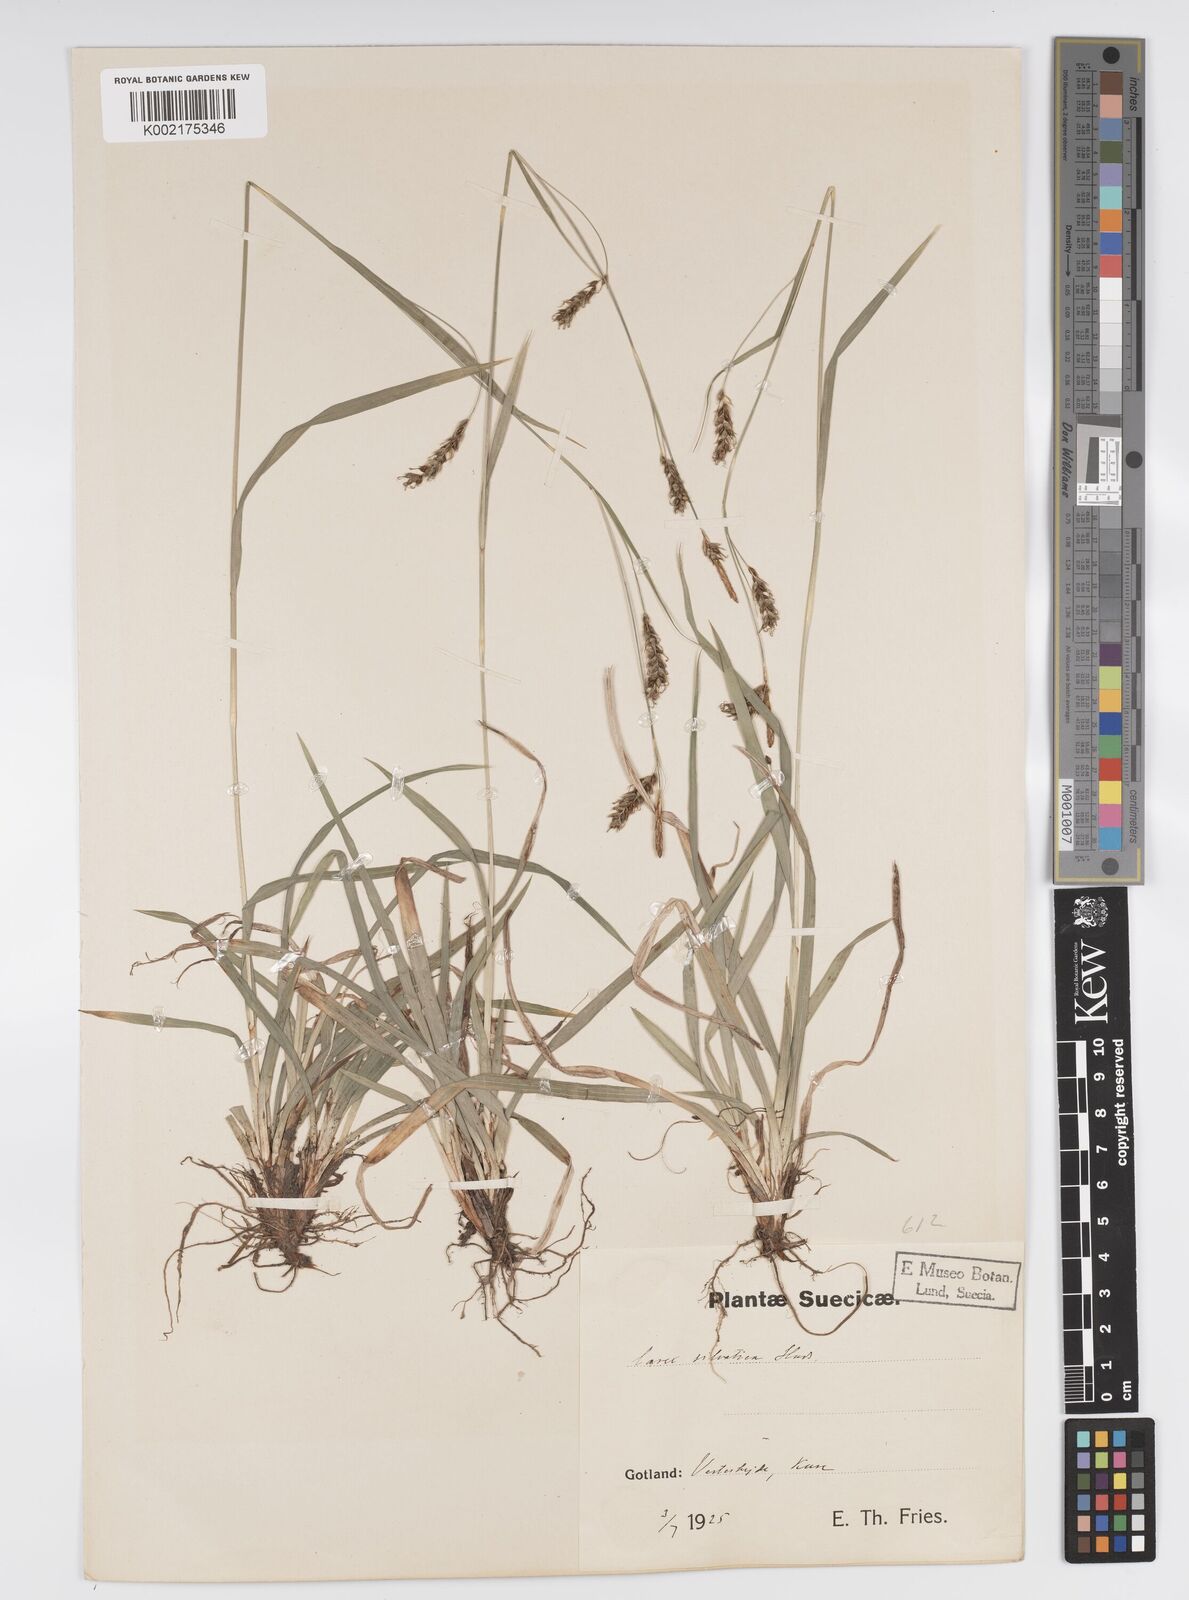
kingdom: Plantae
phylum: Tracheophyta
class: Liliopsida
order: Poales
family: Cyperaceae
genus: Carex
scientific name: Carex sylvatica
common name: Wood-sedge
